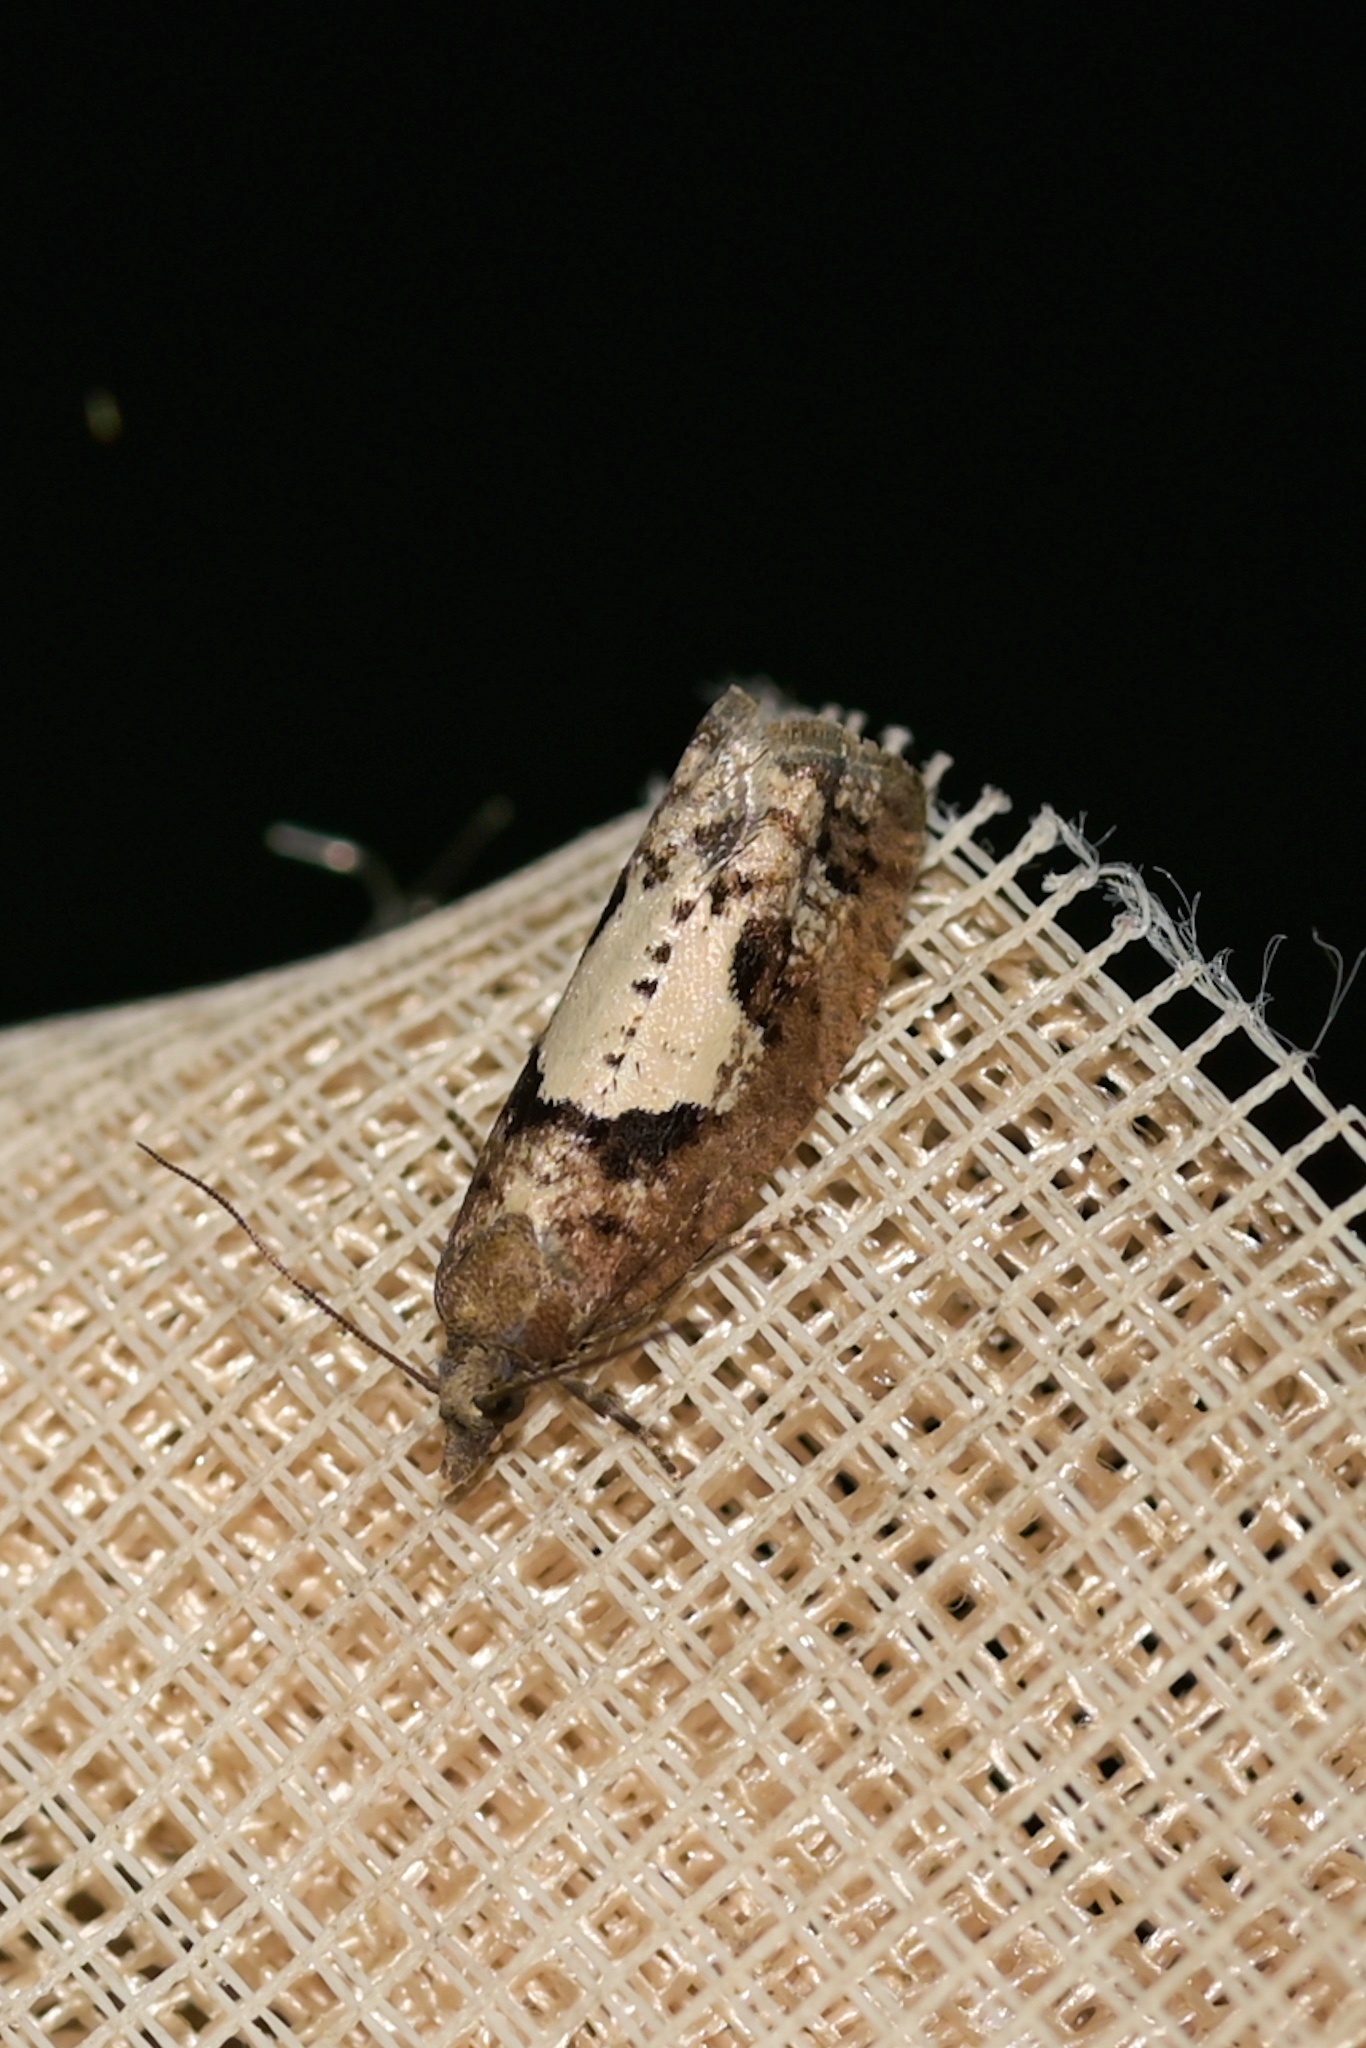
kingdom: Animalia
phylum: Arthropoda
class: Insecta
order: Lepidoptera
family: Tortricidae
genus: Epinotia
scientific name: Epinotia brunnichana
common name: Large birch bell
